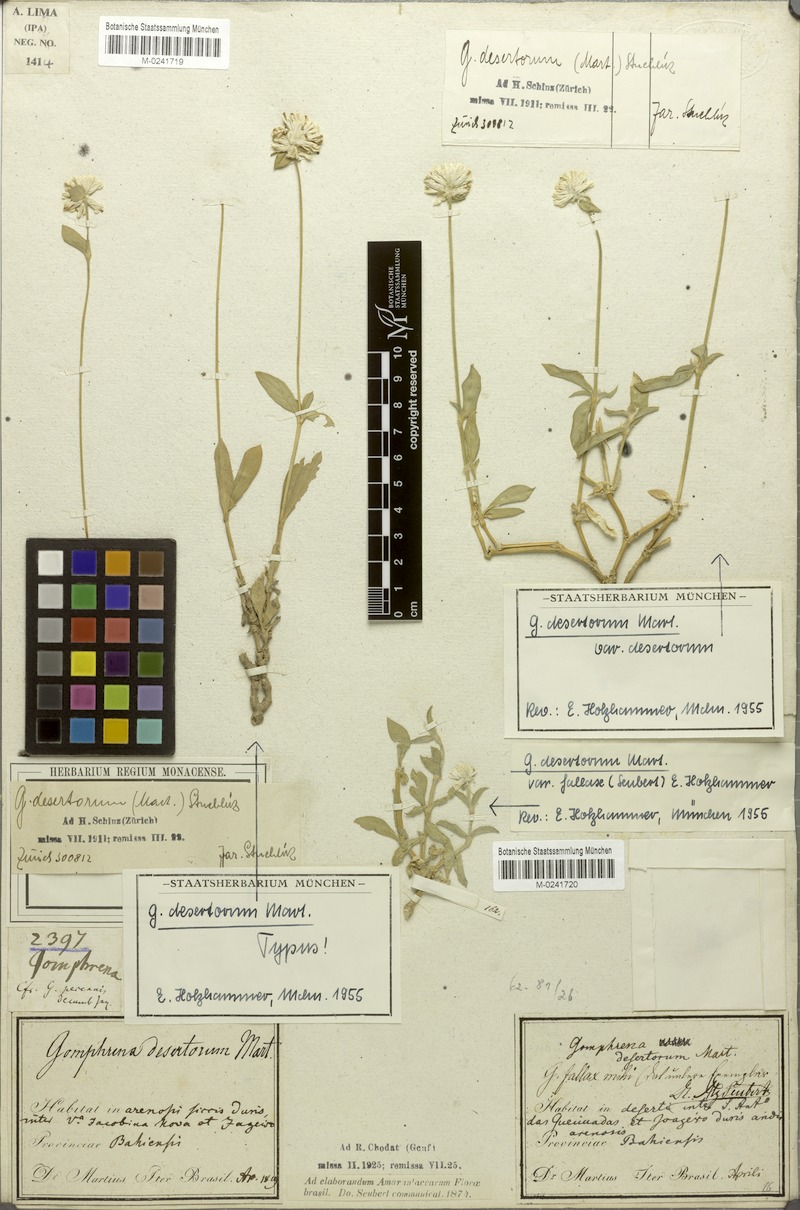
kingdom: Plantae
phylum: Tracheophyta
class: Magnoliopsida
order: Caryophyllales
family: Amaranthaceae
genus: Gomphrena
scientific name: Gomphrena celosioides
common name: Gomphrena-weed
